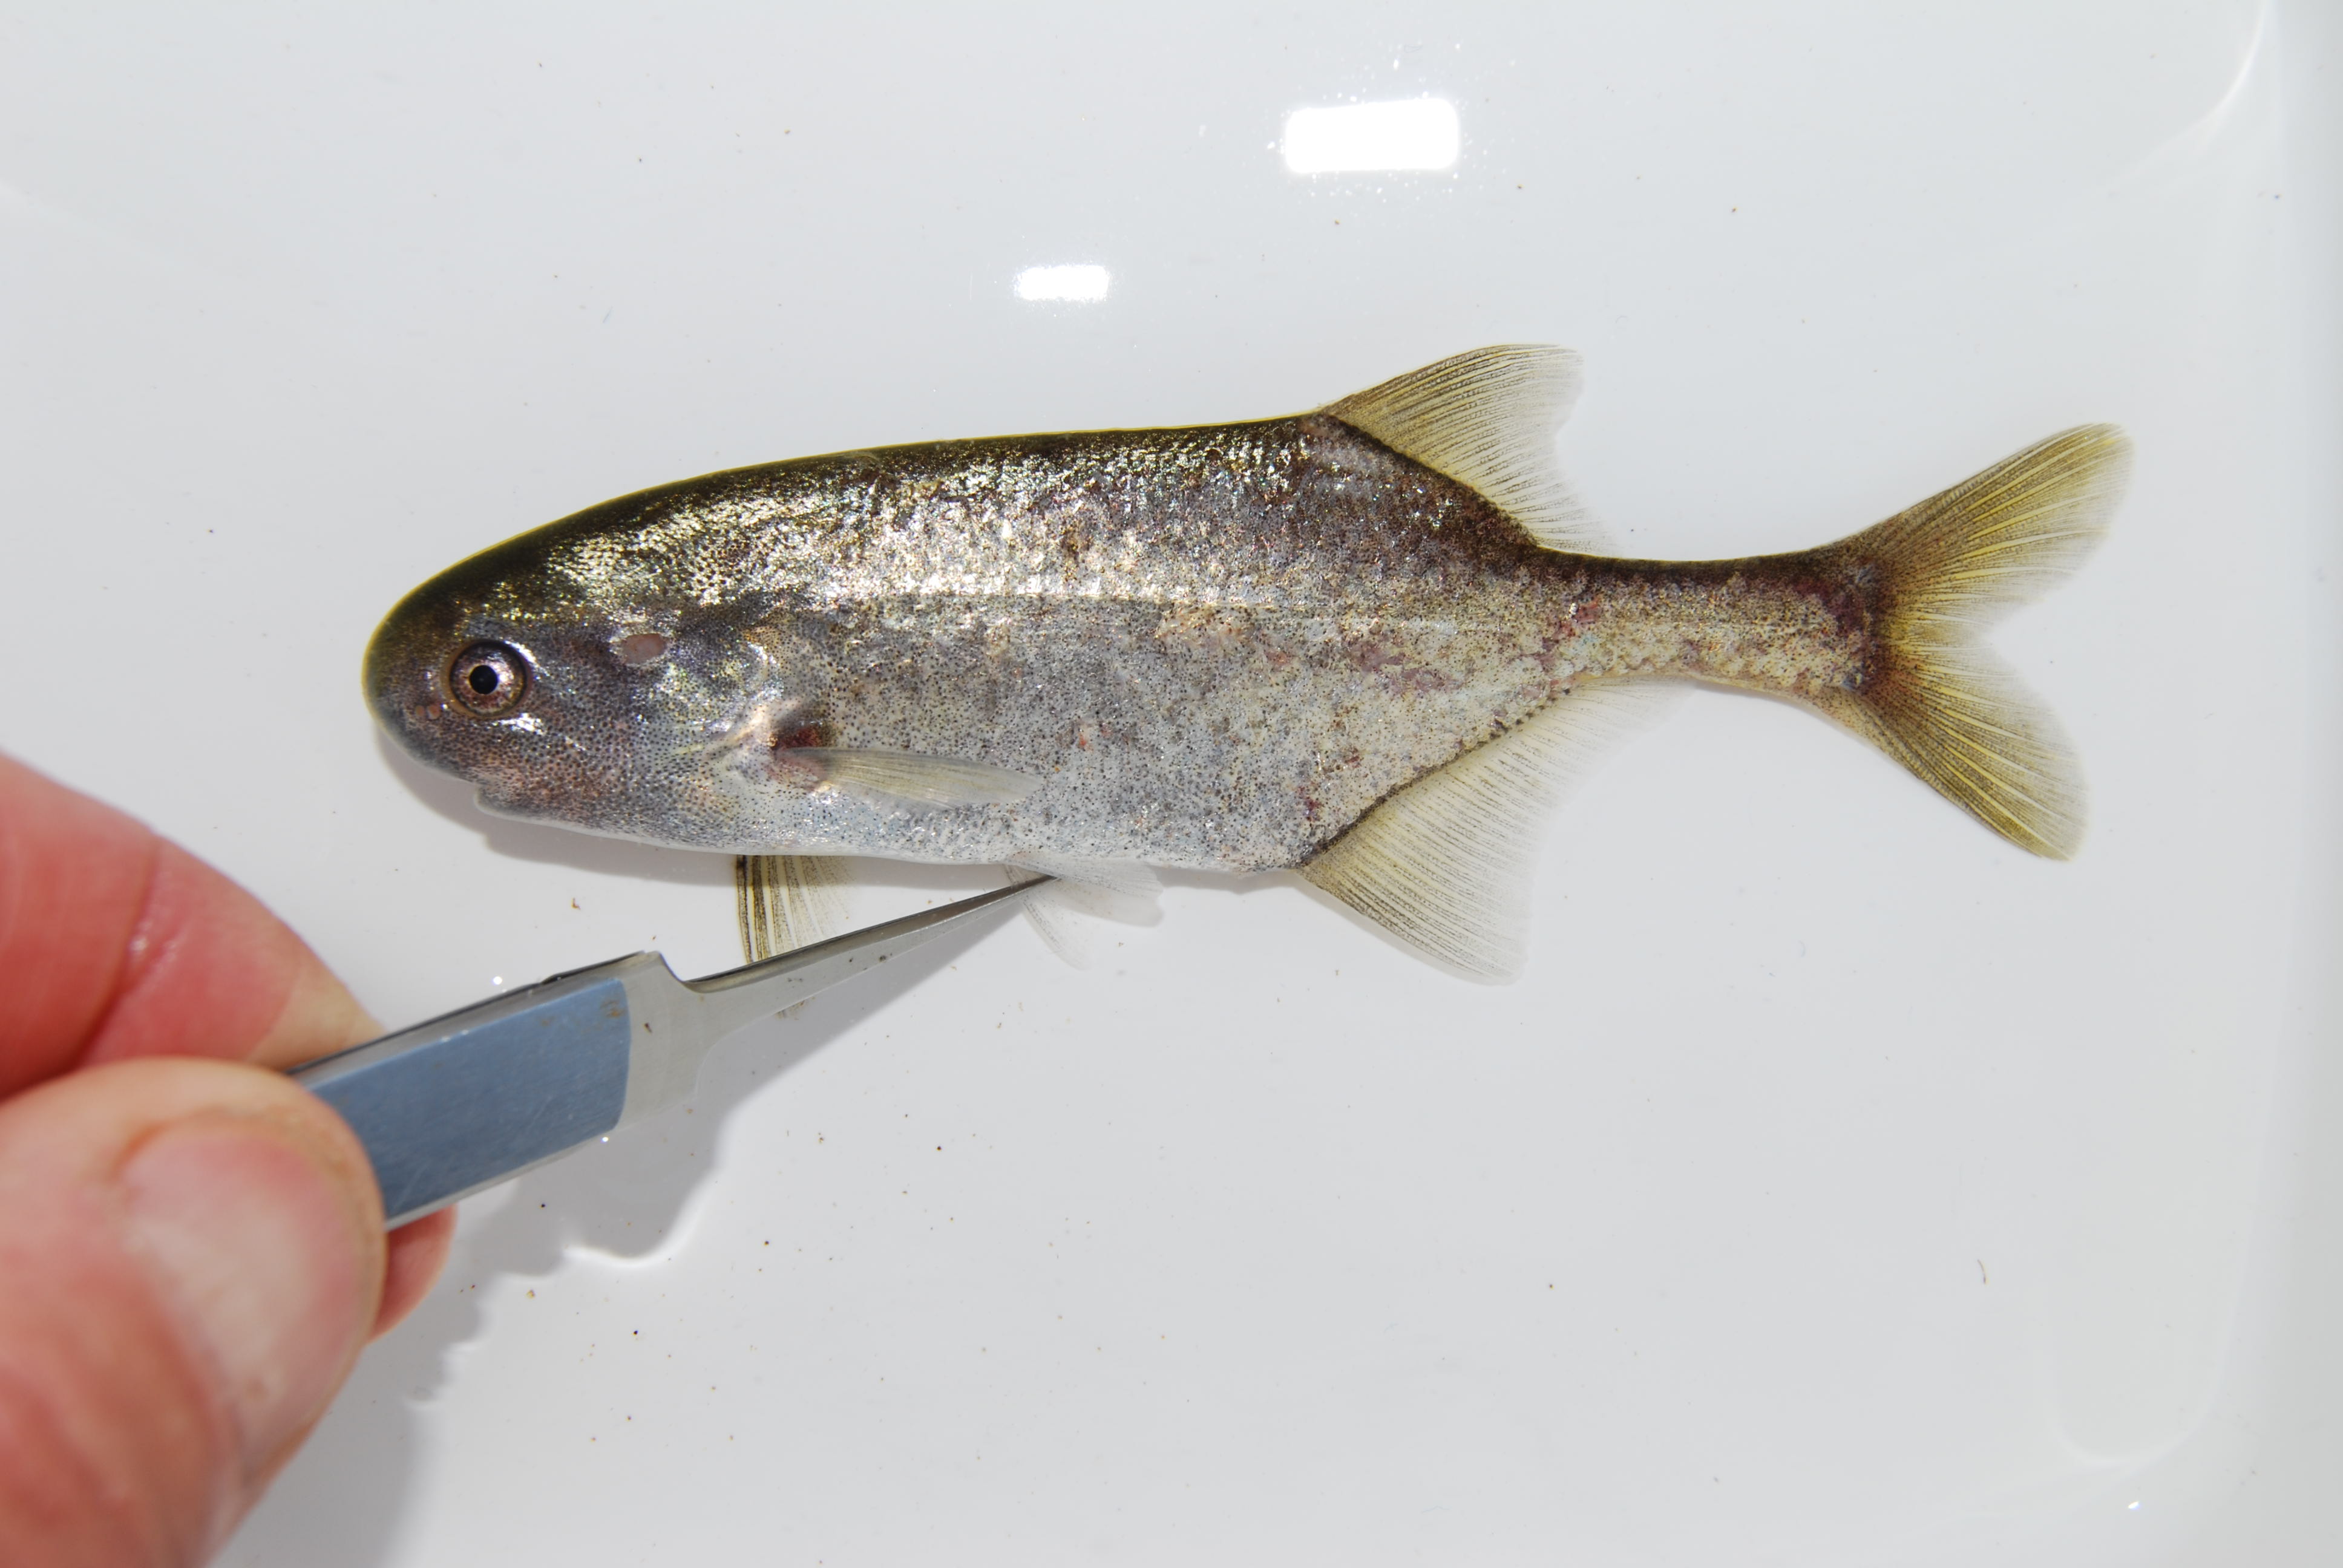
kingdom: Animalia
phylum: Chordata
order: Osteoglossiformes
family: Mormyridae
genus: Petrocephalus
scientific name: Petrocephalus wesselsi
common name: Southern churchill
